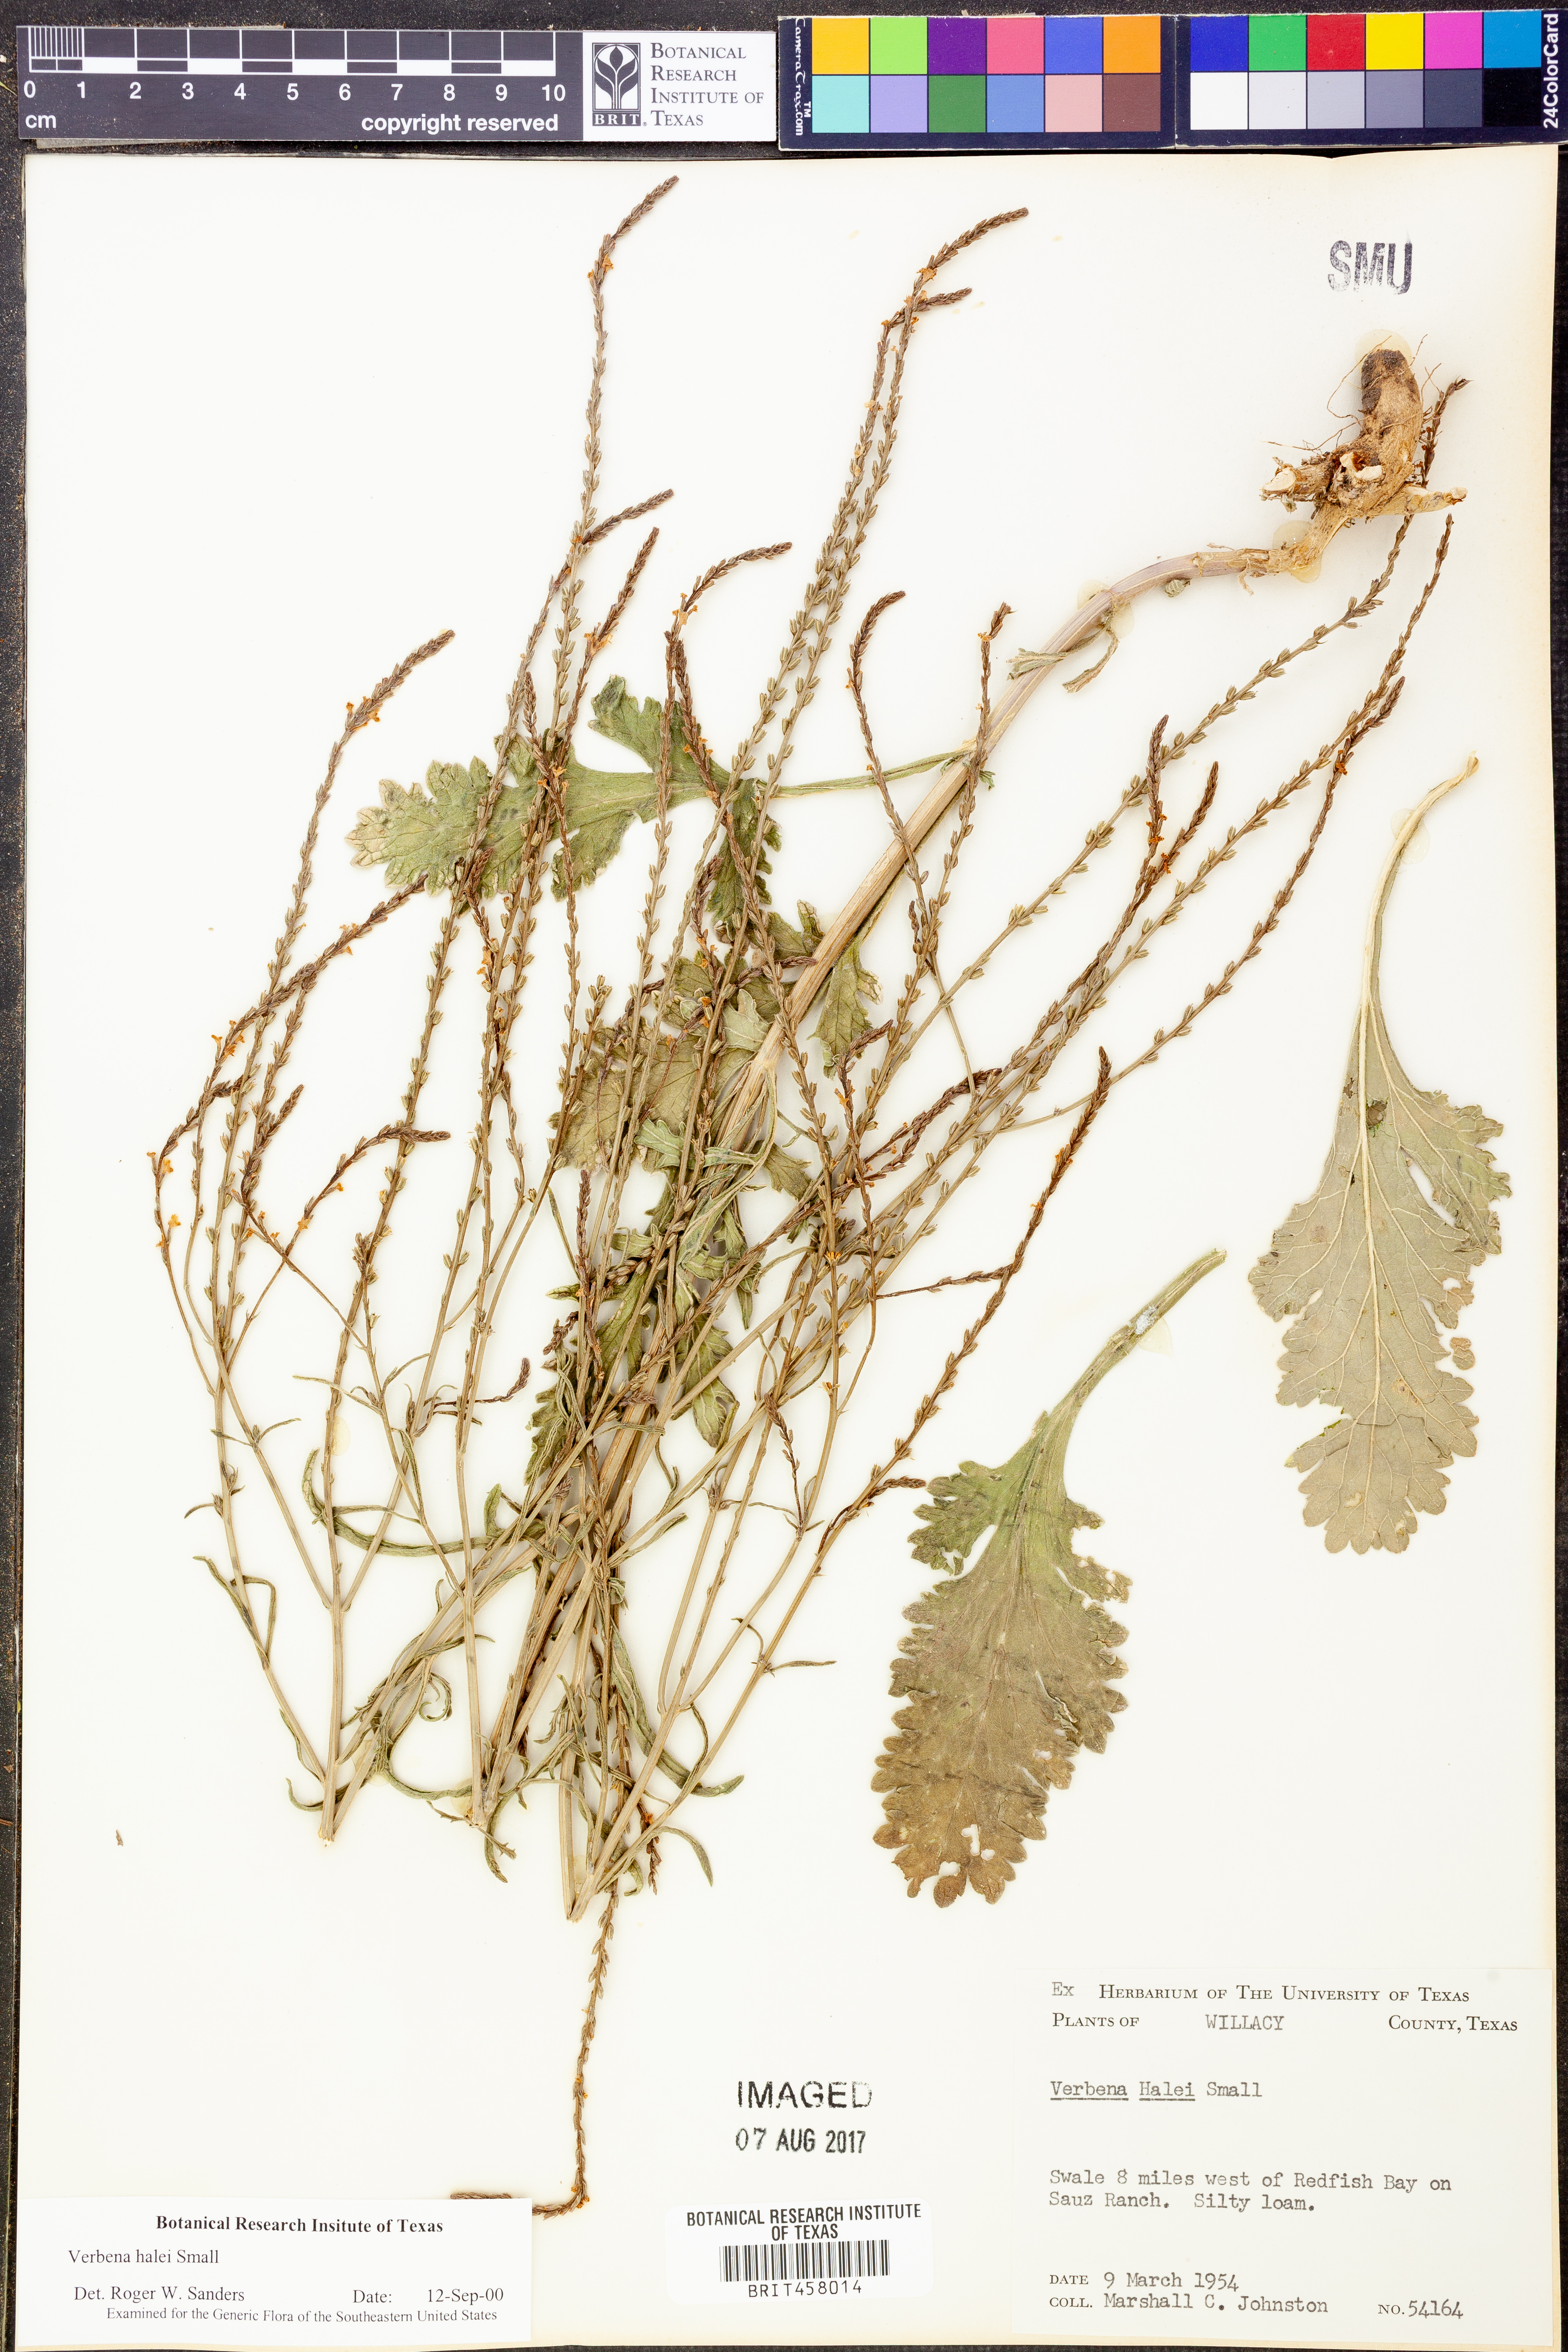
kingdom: Plantae
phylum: Tracheophyta
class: Magnoliopsida
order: Lamiales
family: Verbenaceae
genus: Verbena
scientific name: Verbena halei
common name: Texas vervain
